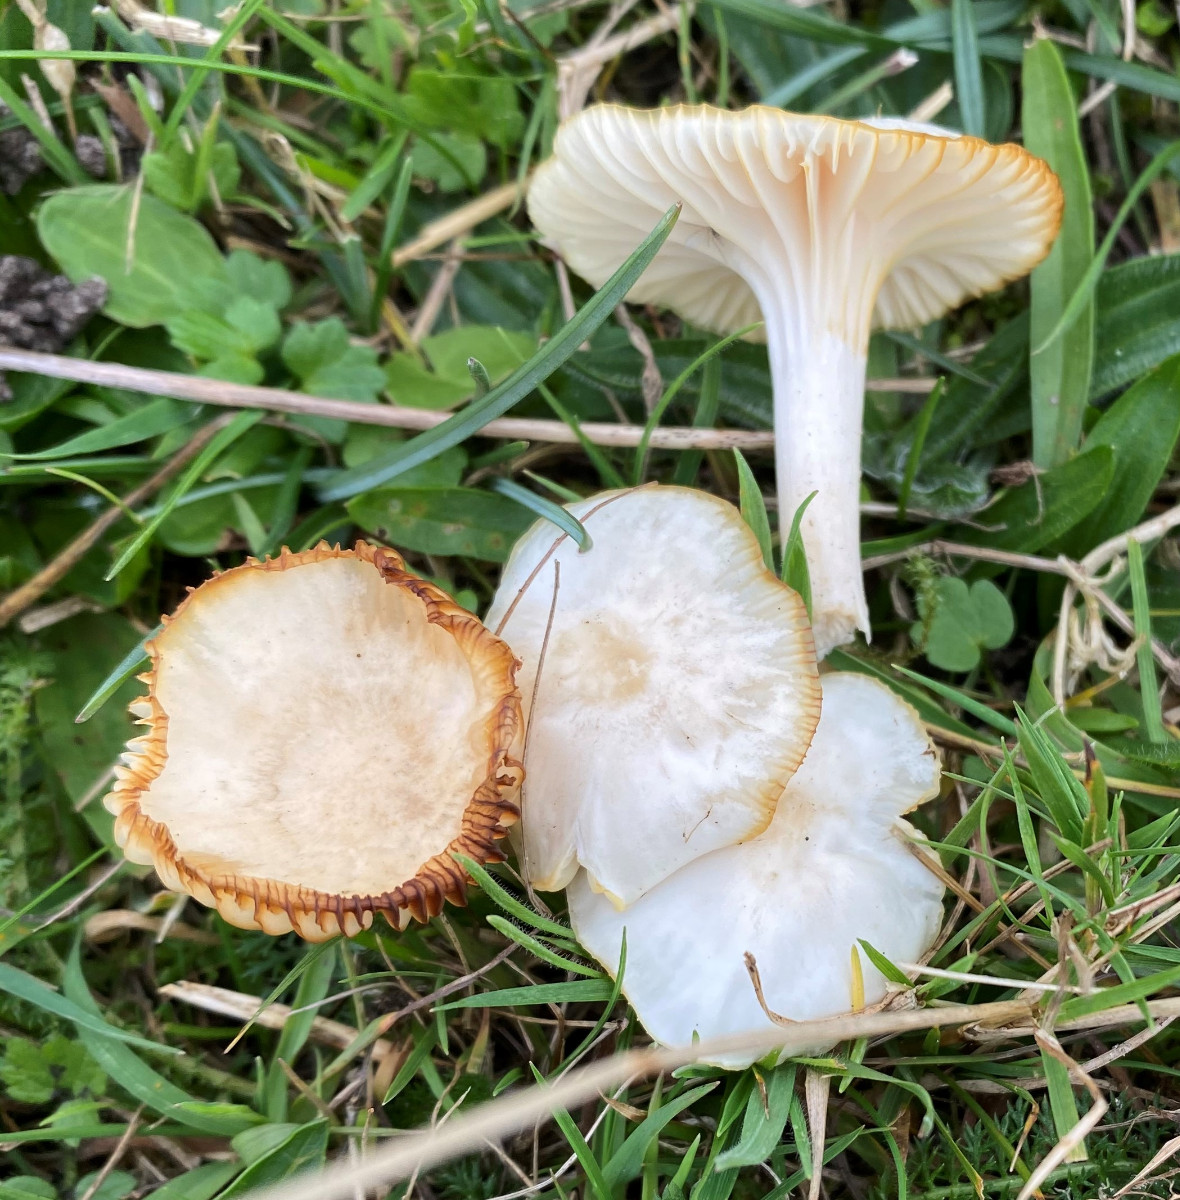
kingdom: Fungi
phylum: Basidiomycota
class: Agaricomycetes
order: Agaricales
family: Hygrophoraceae
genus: Cuphophyllus
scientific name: Cuphophyllus
